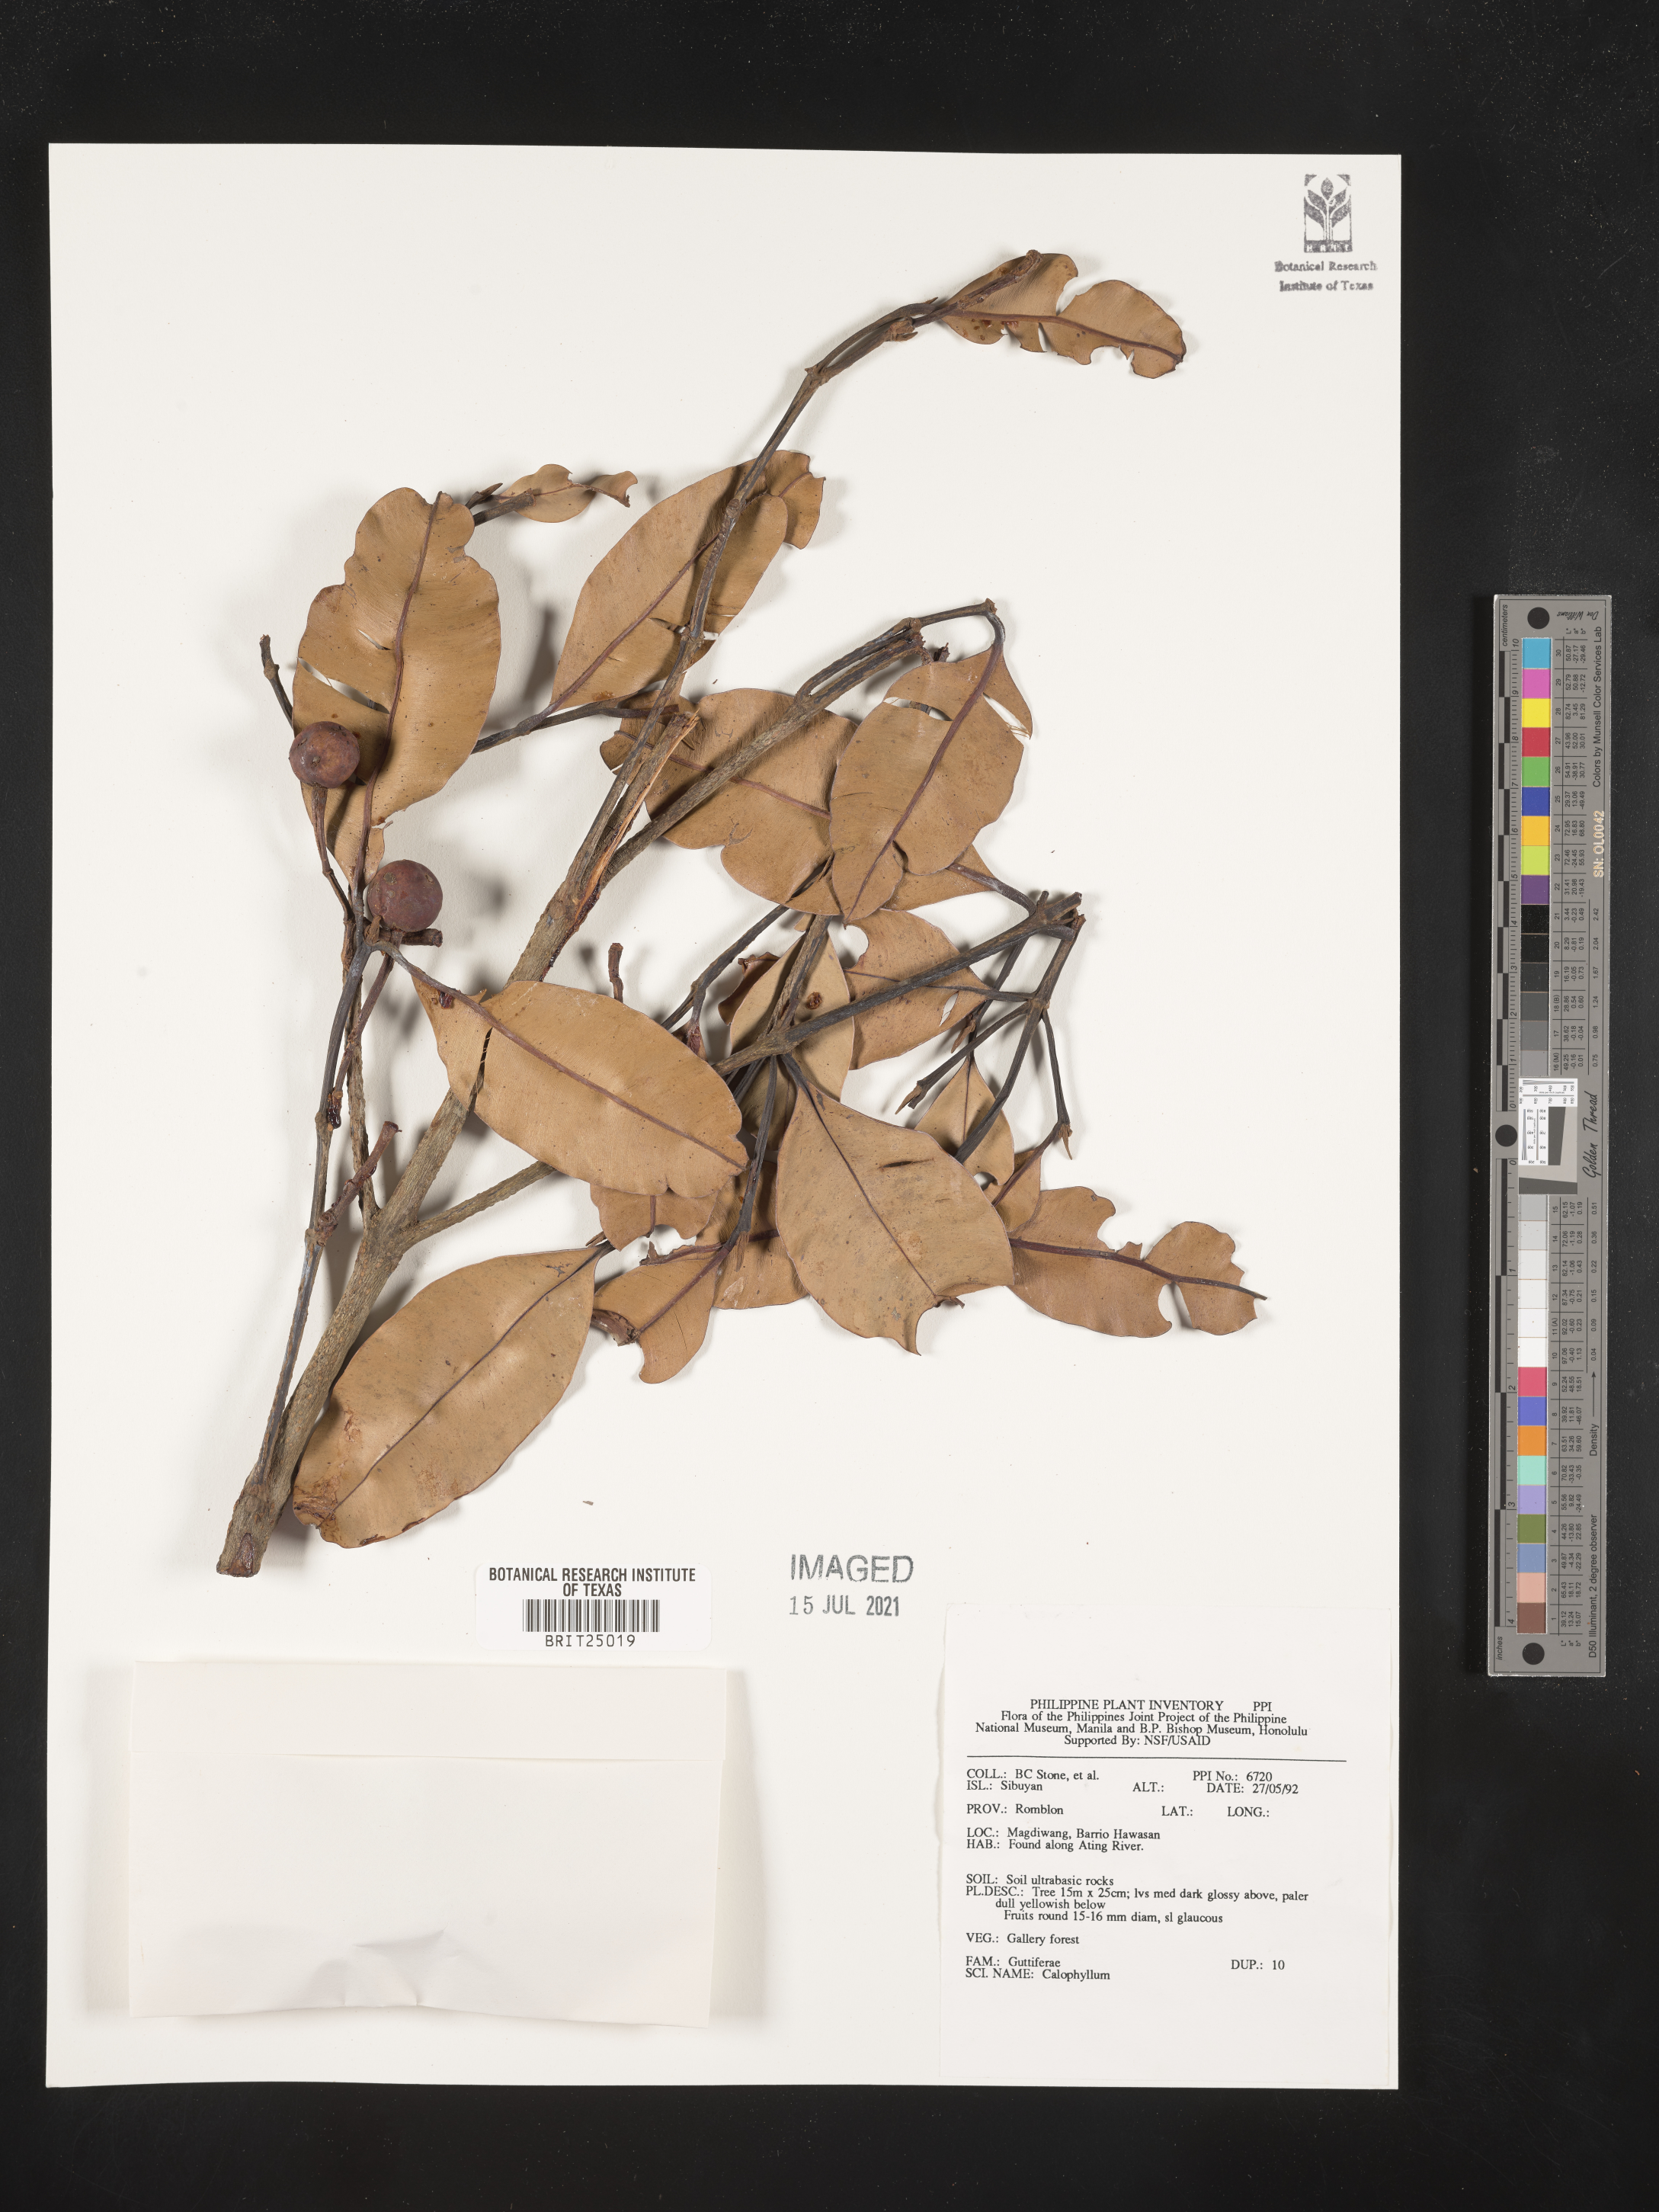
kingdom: Plantae
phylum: Tracheophyta
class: Magnoliopsida
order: Malpighiales
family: Calophyllaceae
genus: Calophyllum
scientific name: Calophyllum
